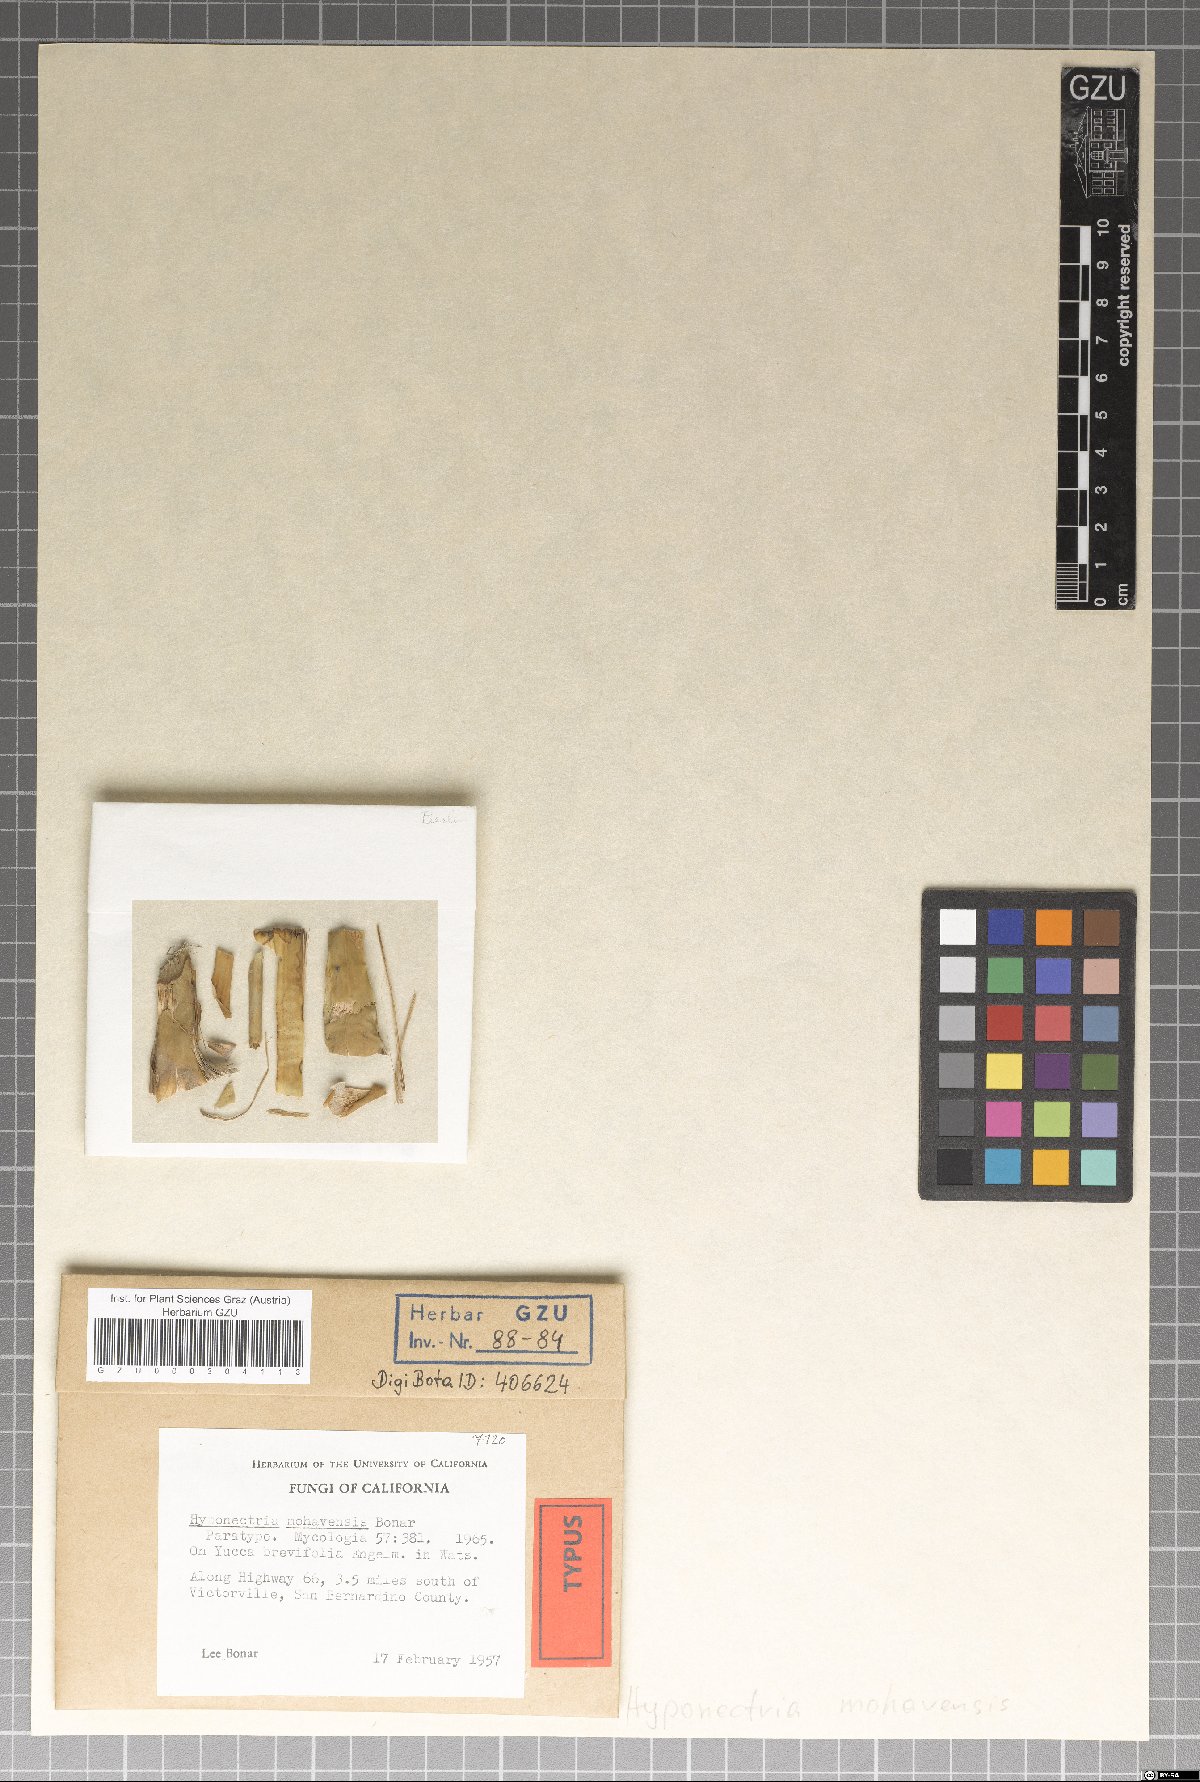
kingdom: Fungi
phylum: Ascomycota
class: Sordariomycetes
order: Xylariales
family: Hyponectriaceae
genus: Hyponectria
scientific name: Hyponectria mohavensis
